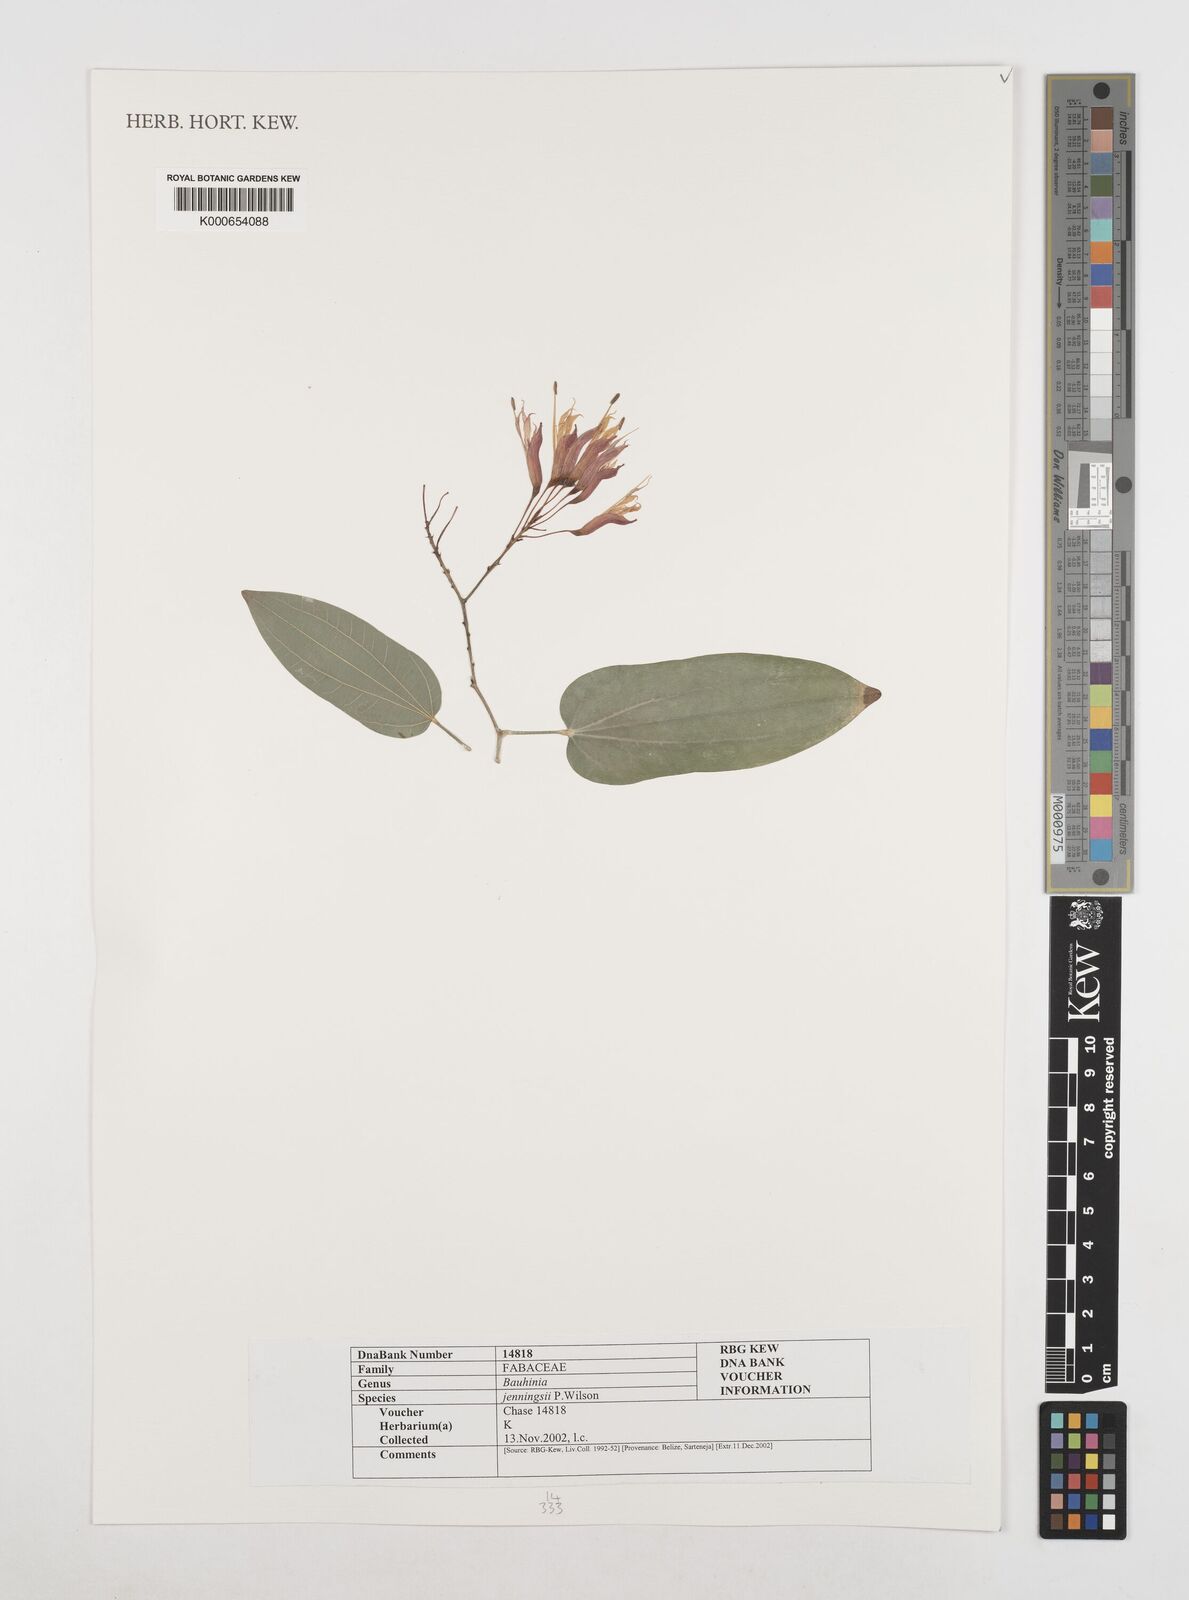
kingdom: Plantae
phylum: Tracheophyta
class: Magnoliopsida
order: Fabales
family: Fabaceae
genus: Bauhinia
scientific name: Bauhinia jenningsii
